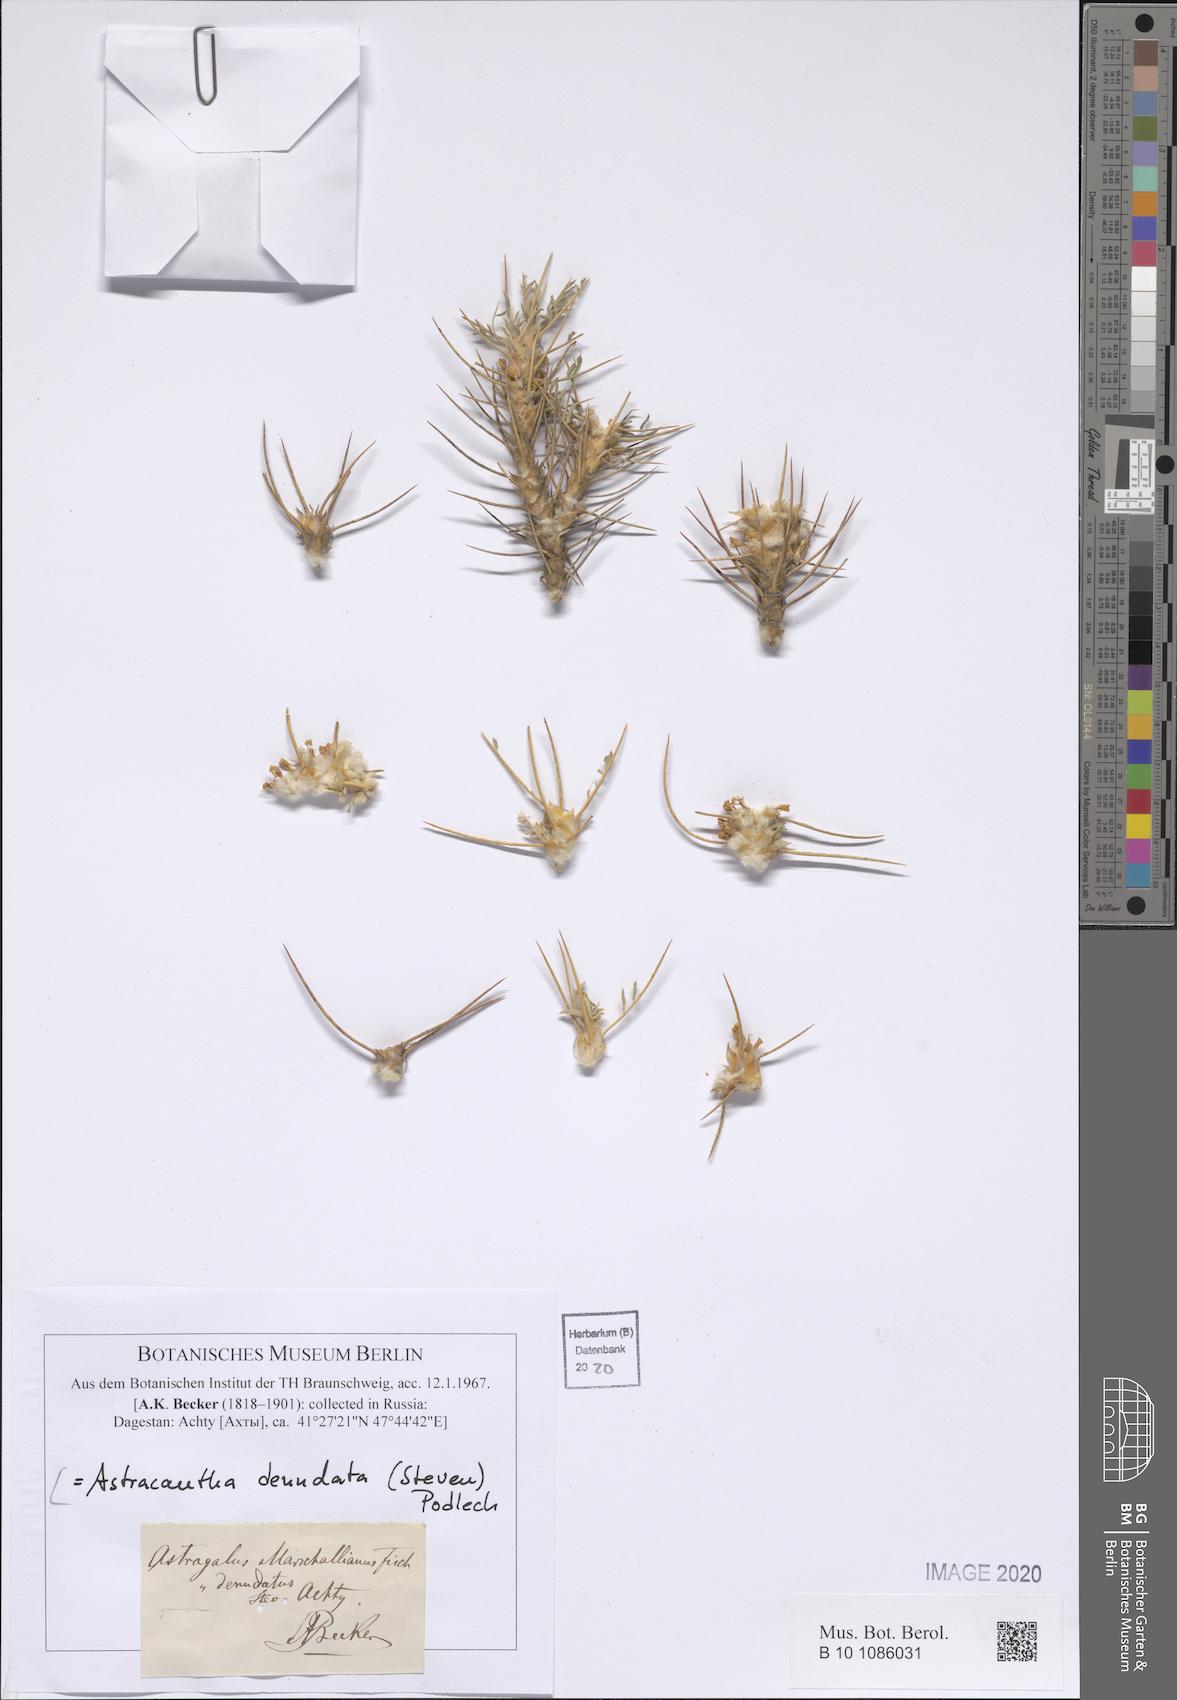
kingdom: Plantae
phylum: Tracheophyta
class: Magnoliopsida
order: Fabales
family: Fabaceae
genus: Astragalus
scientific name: Astragalus denudatus
